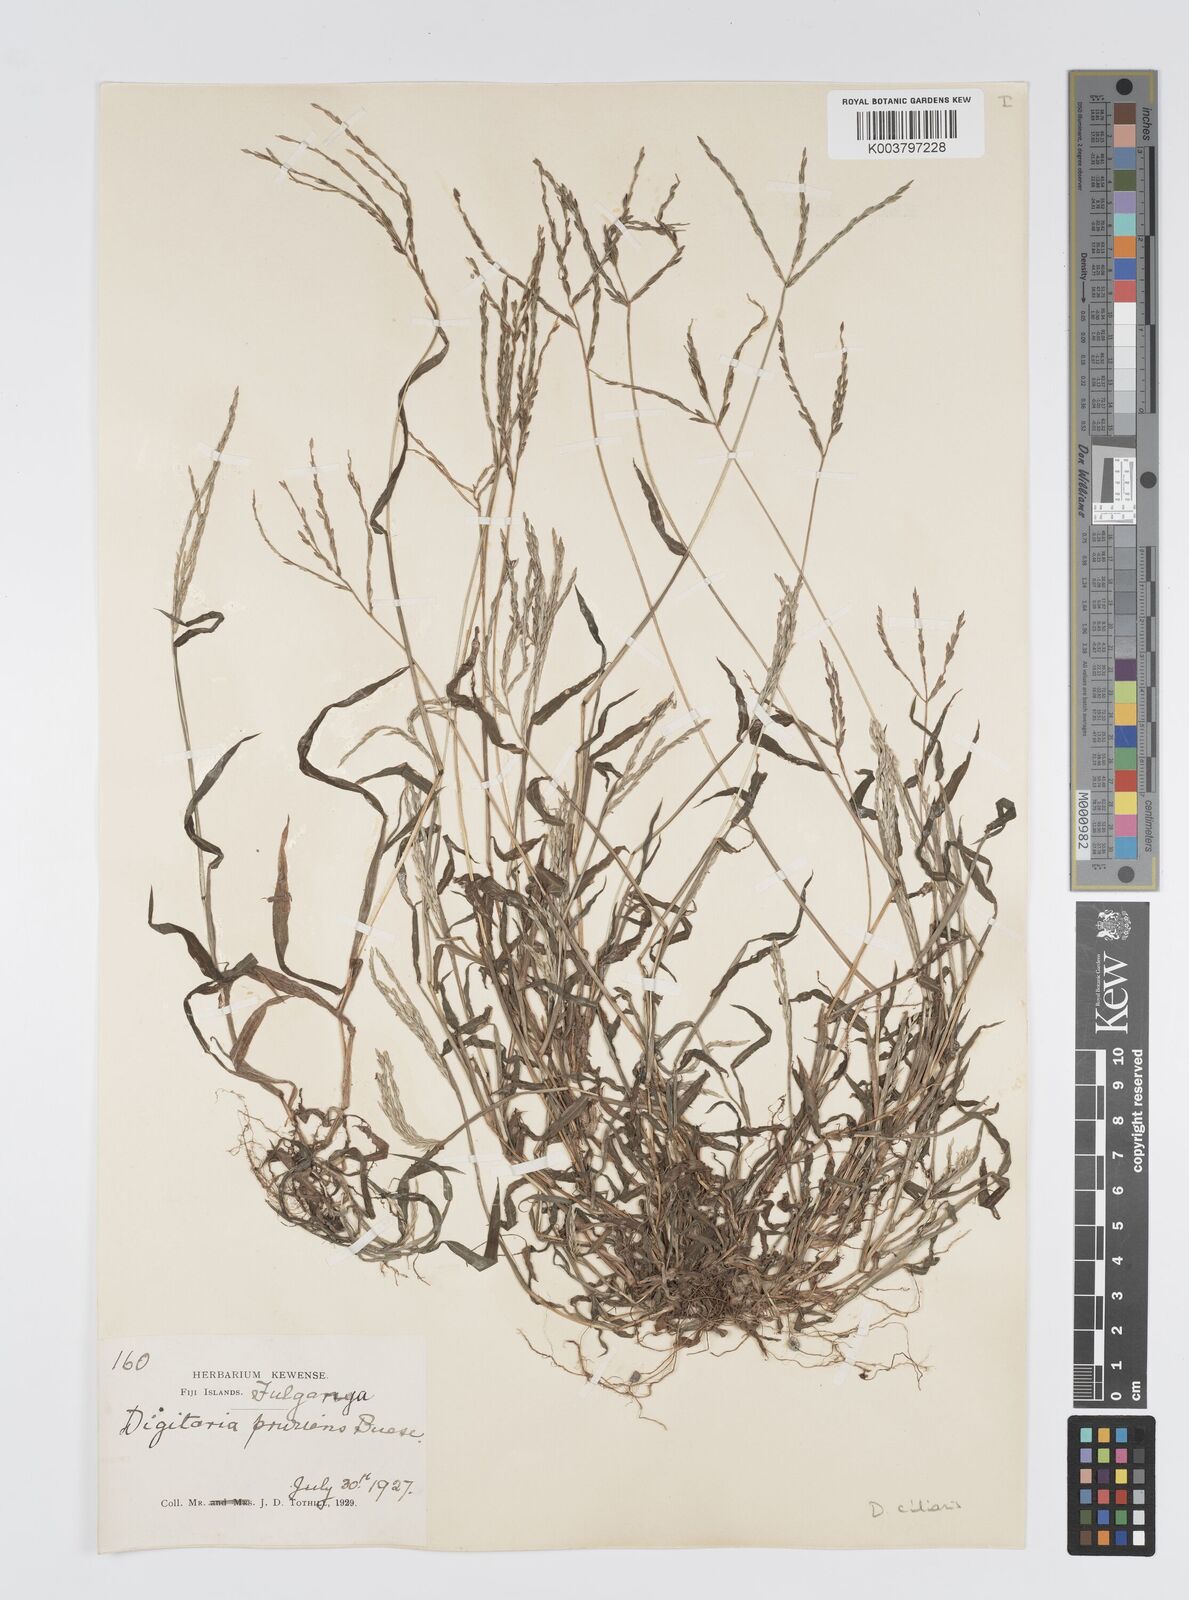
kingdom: Plantae
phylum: Tracheophyta
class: Liliopsida
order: Poales
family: Poaceae
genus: Digitaria
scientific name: Digitaria ciliaris
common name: Tropical finger-grass
